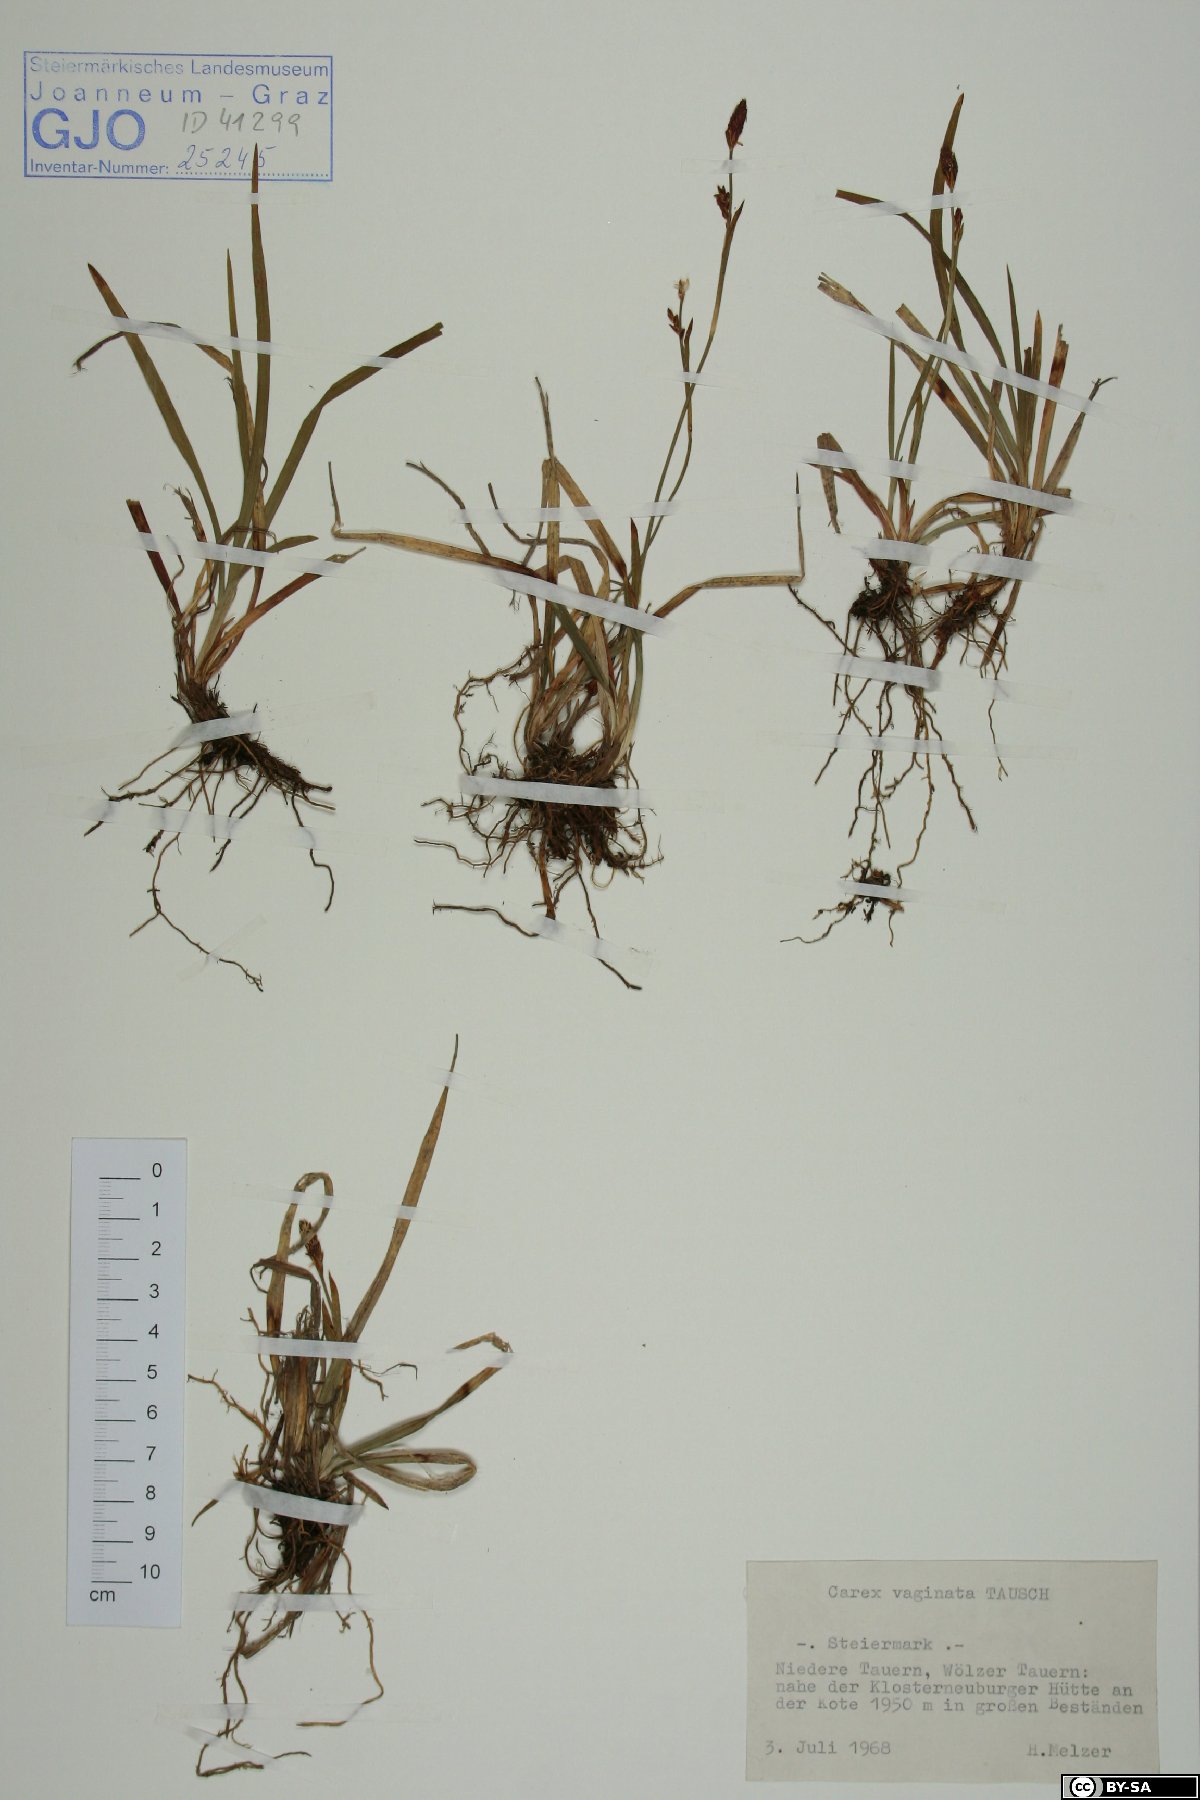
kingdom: Plantae
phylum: Tracheophyta
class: Liliopsida
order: Poales
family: Cyperaceae
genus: Carex
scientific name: Carex vaginata
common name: Sheathed sedge
